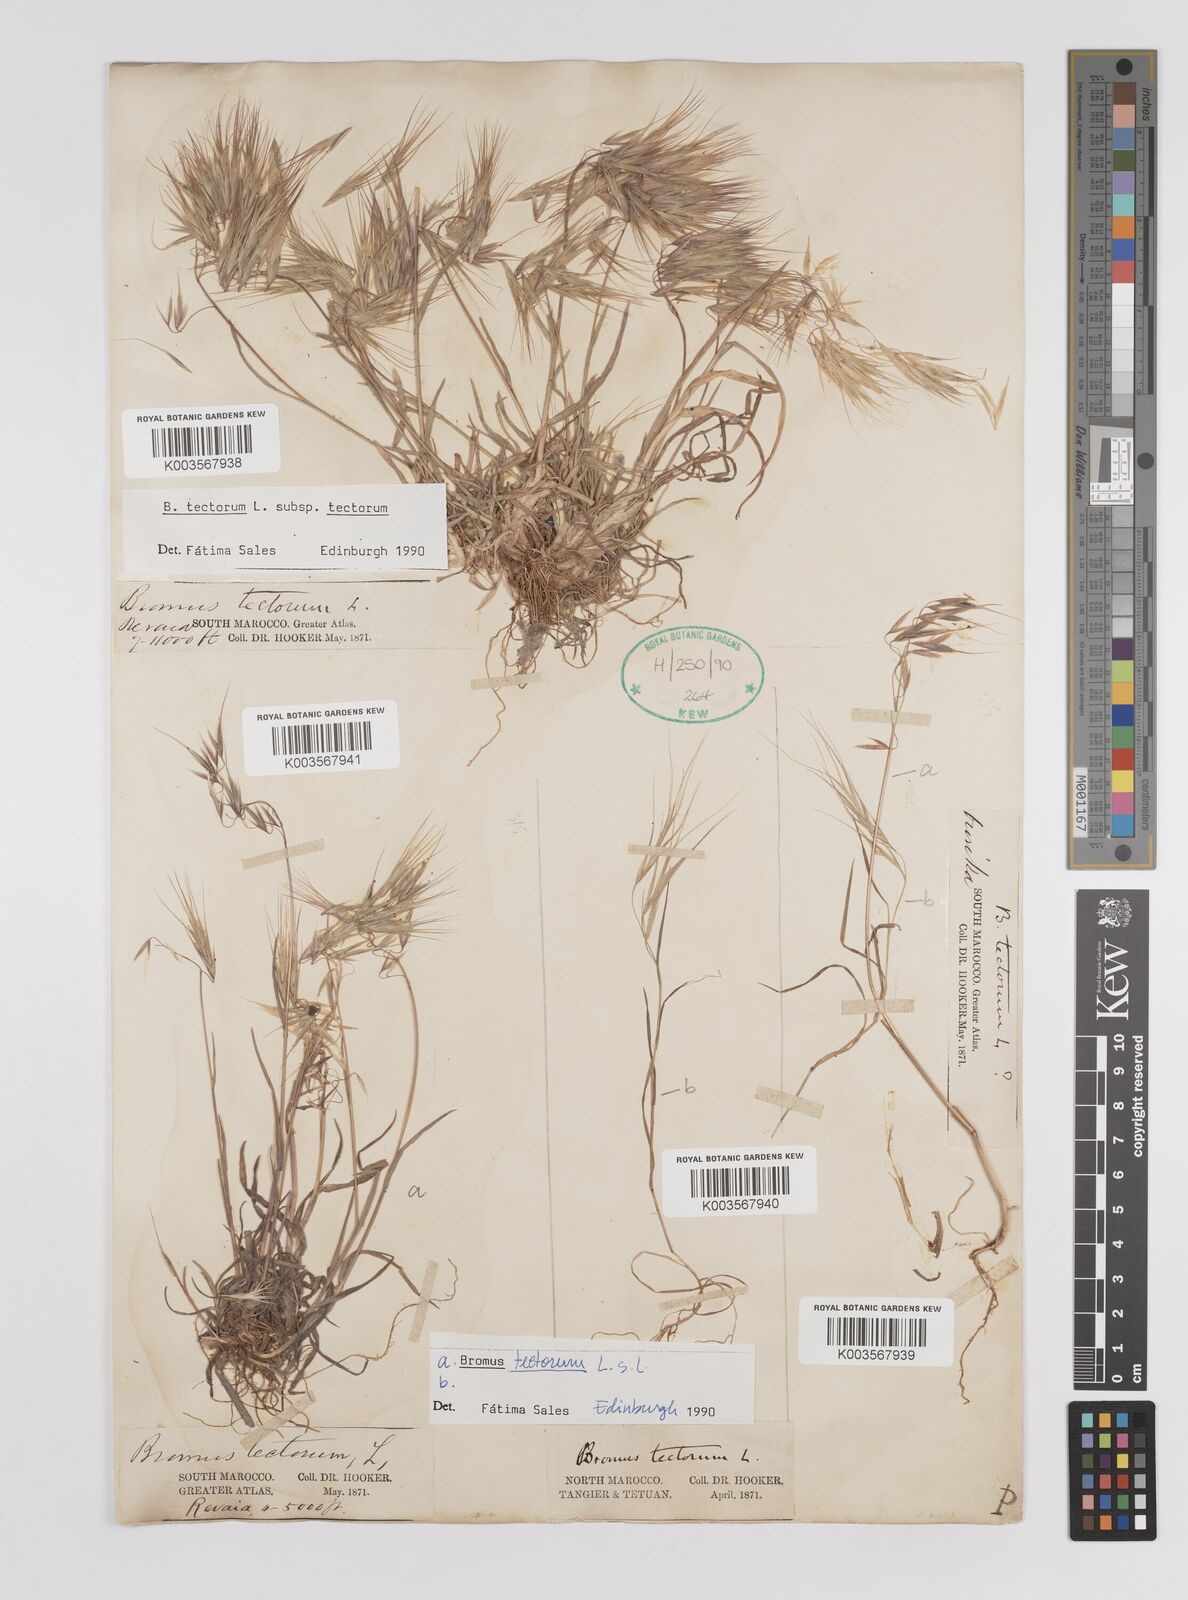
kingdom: Plantae
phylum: Tracheophyta
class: Liliopsida
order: Poales
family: Poaceae
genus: Bromus
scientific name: Bromus tectorum
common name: Cheatgrass
